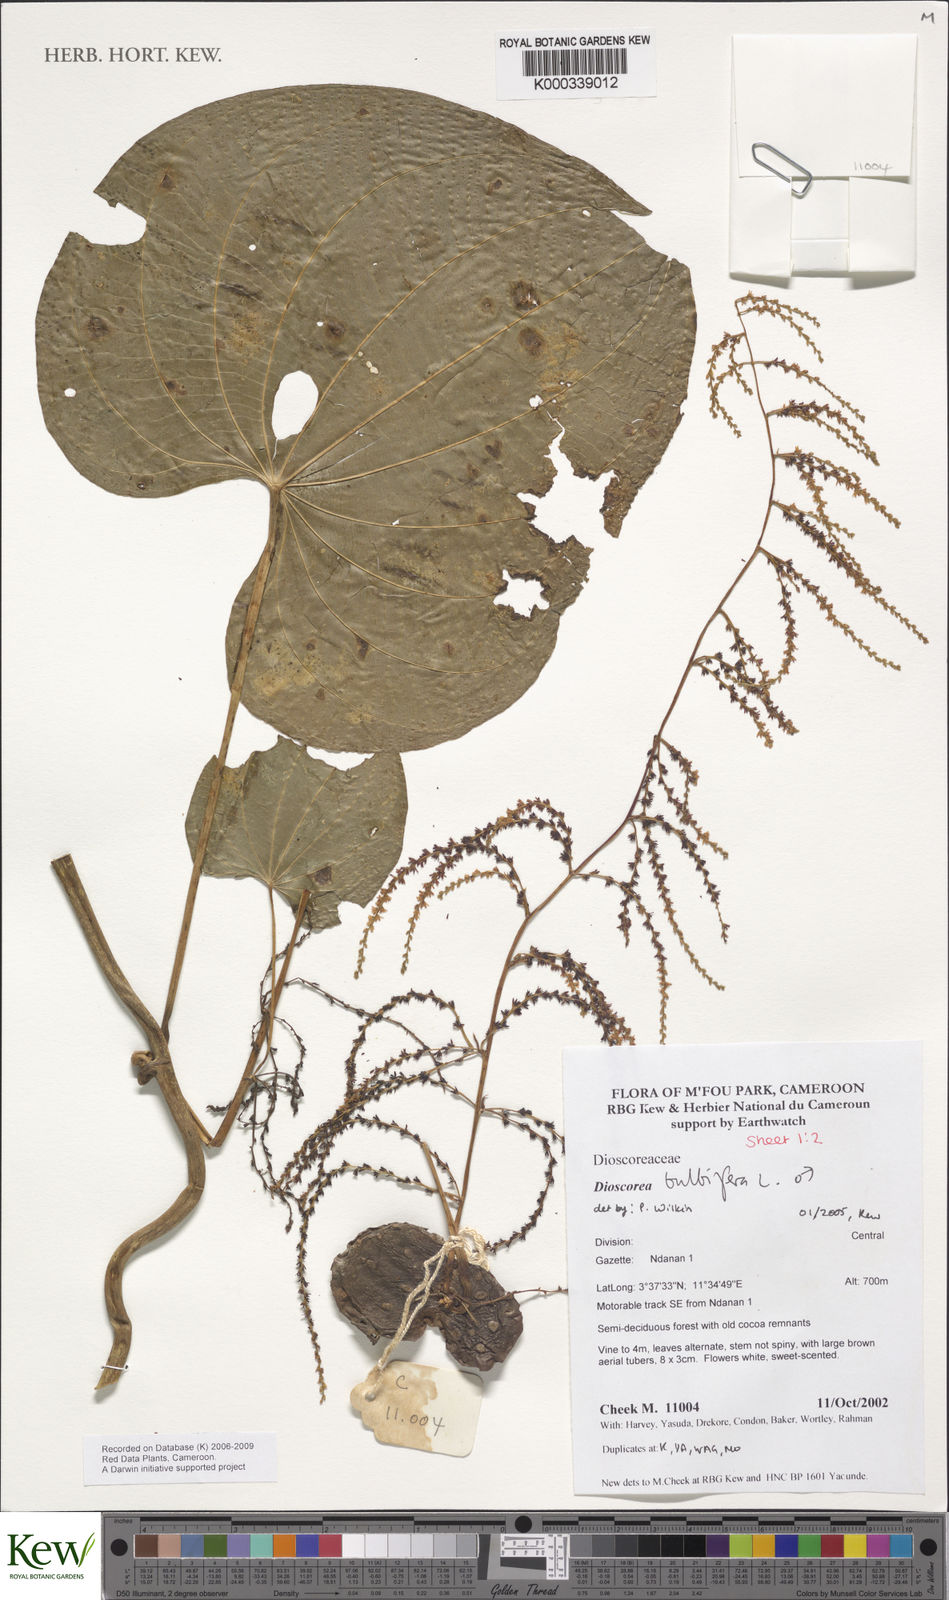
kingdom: Plantae
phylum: Tracheophyta
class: Liliopsida
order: Dioscoreales
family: Dioscoreaceae
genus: Dioscorea
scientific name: Dioscorea bulbifera
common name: Air yam
